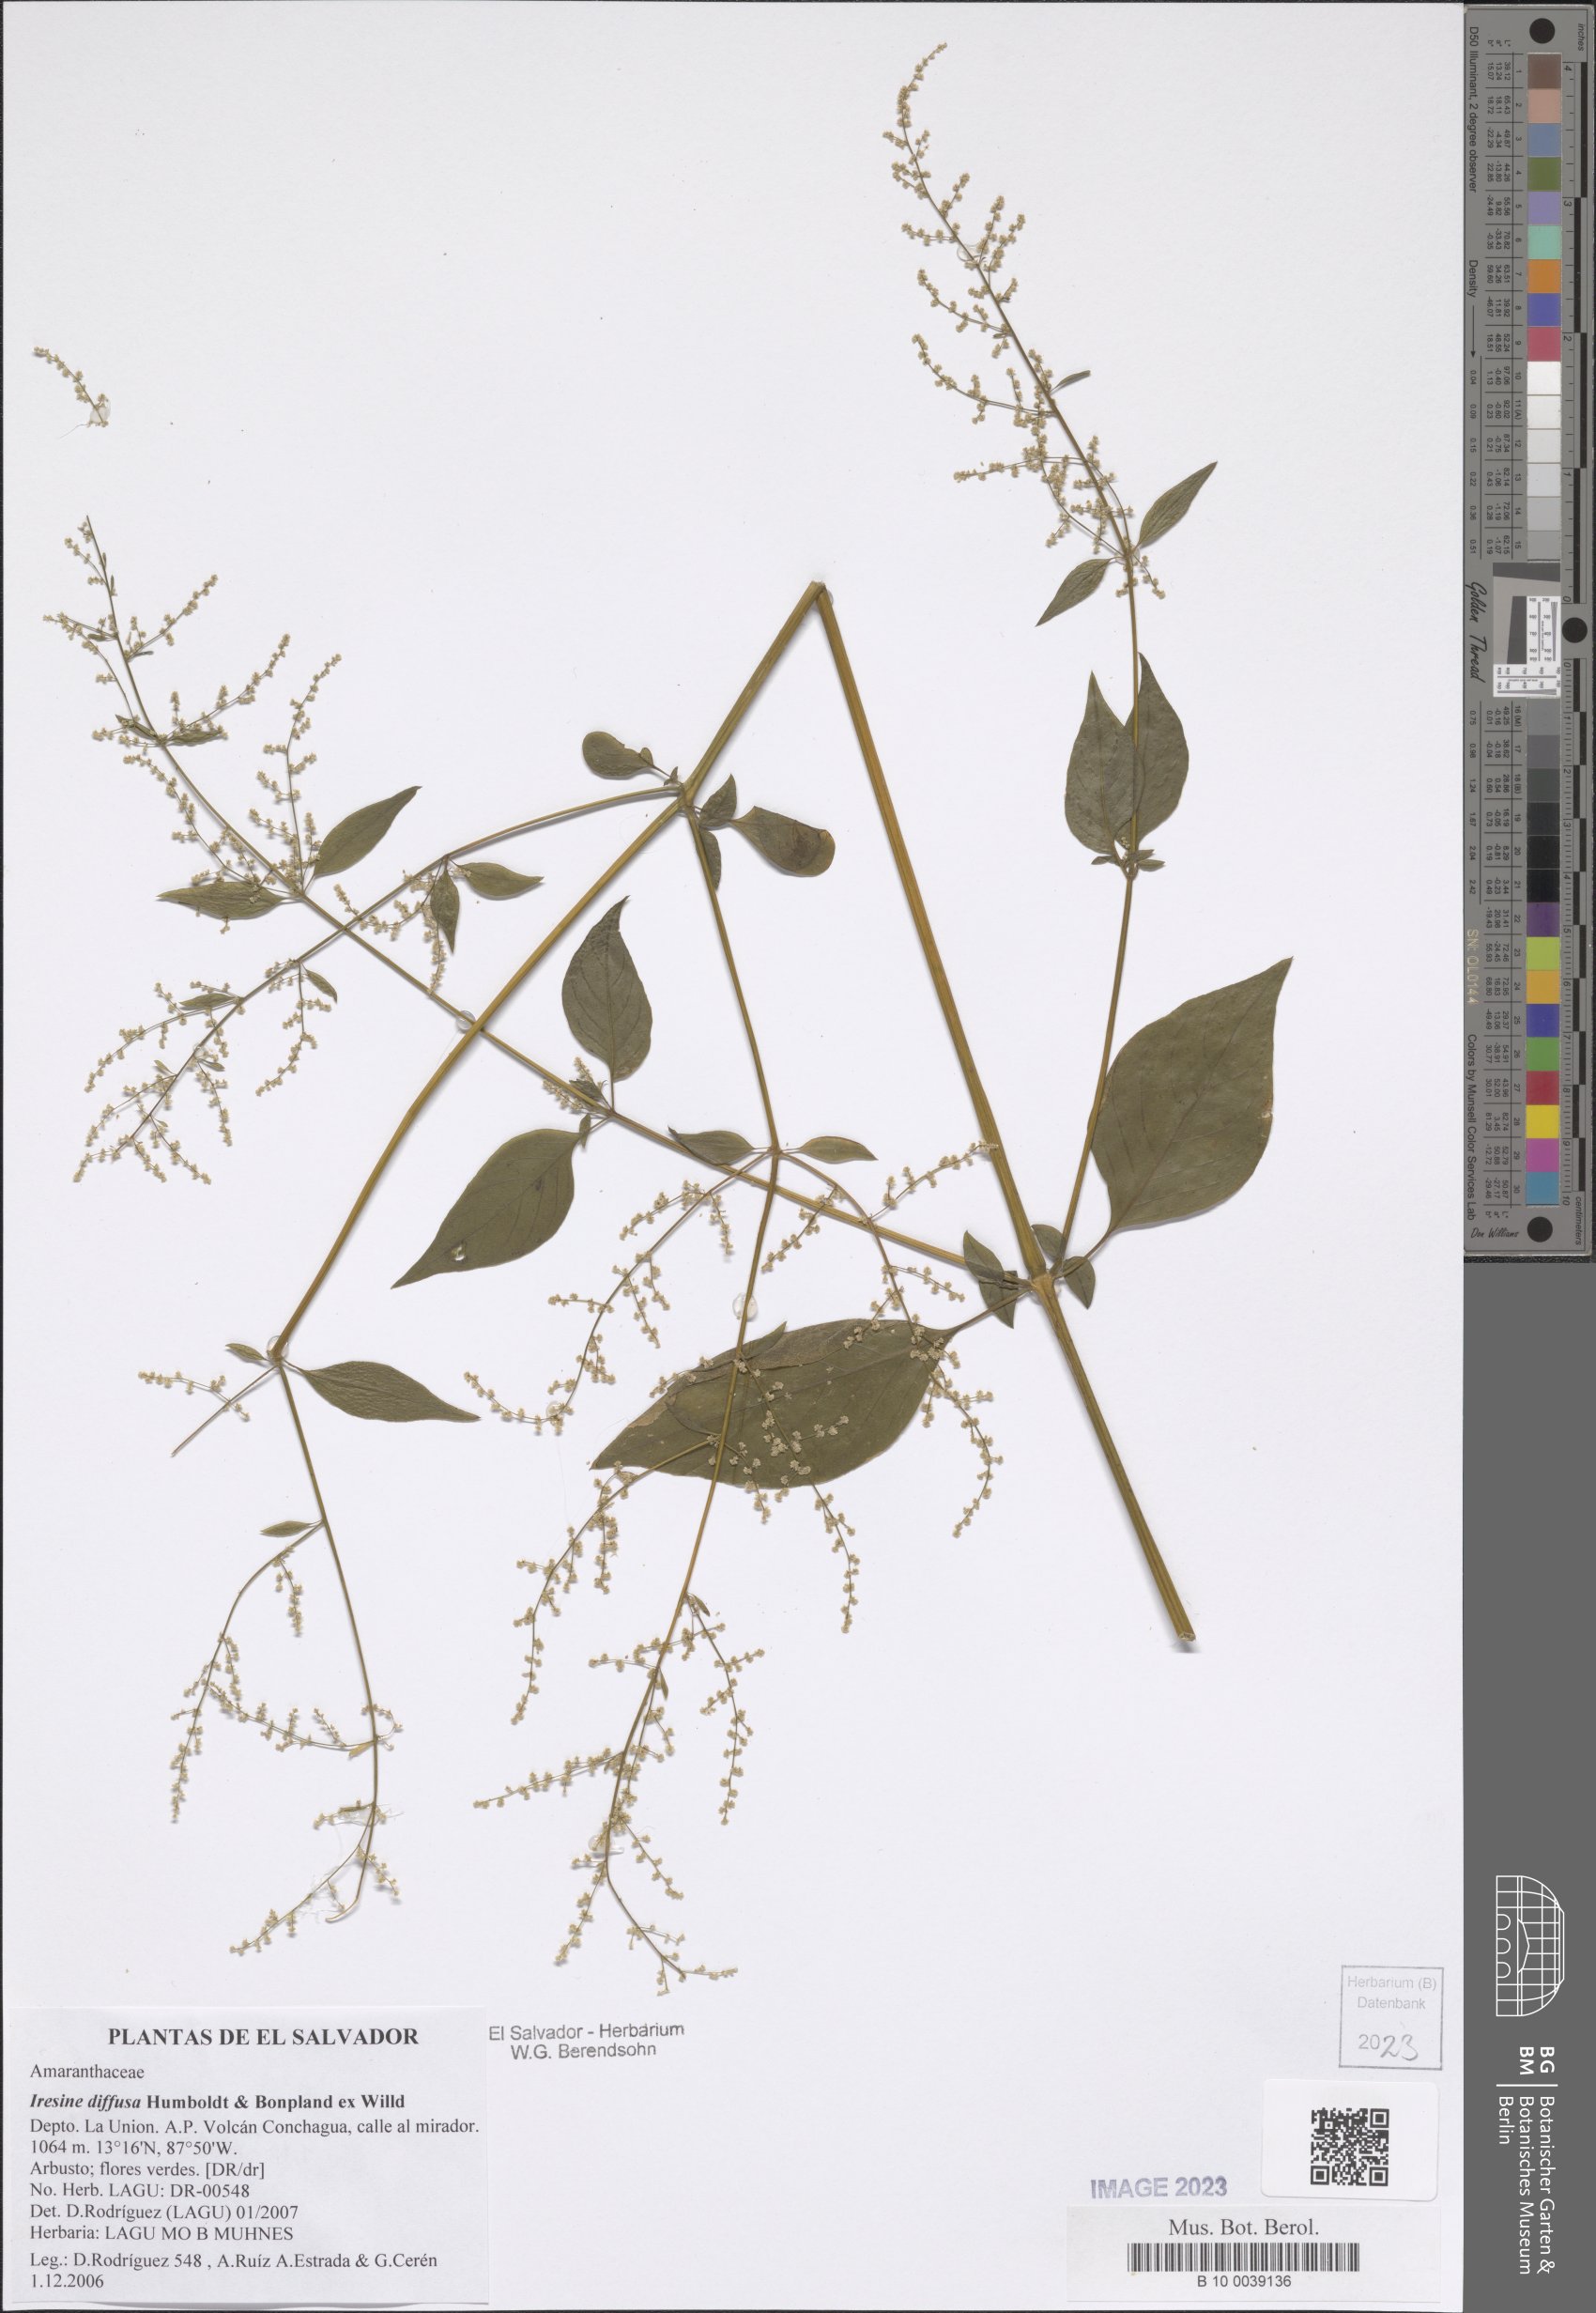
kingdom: Plantae
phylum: Tracheophyta
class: Magnoliopsida
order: Caryophyllales
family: Amaranthaceae
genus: Iresine
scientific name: Iresine diffusa
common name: Juba's-bush
